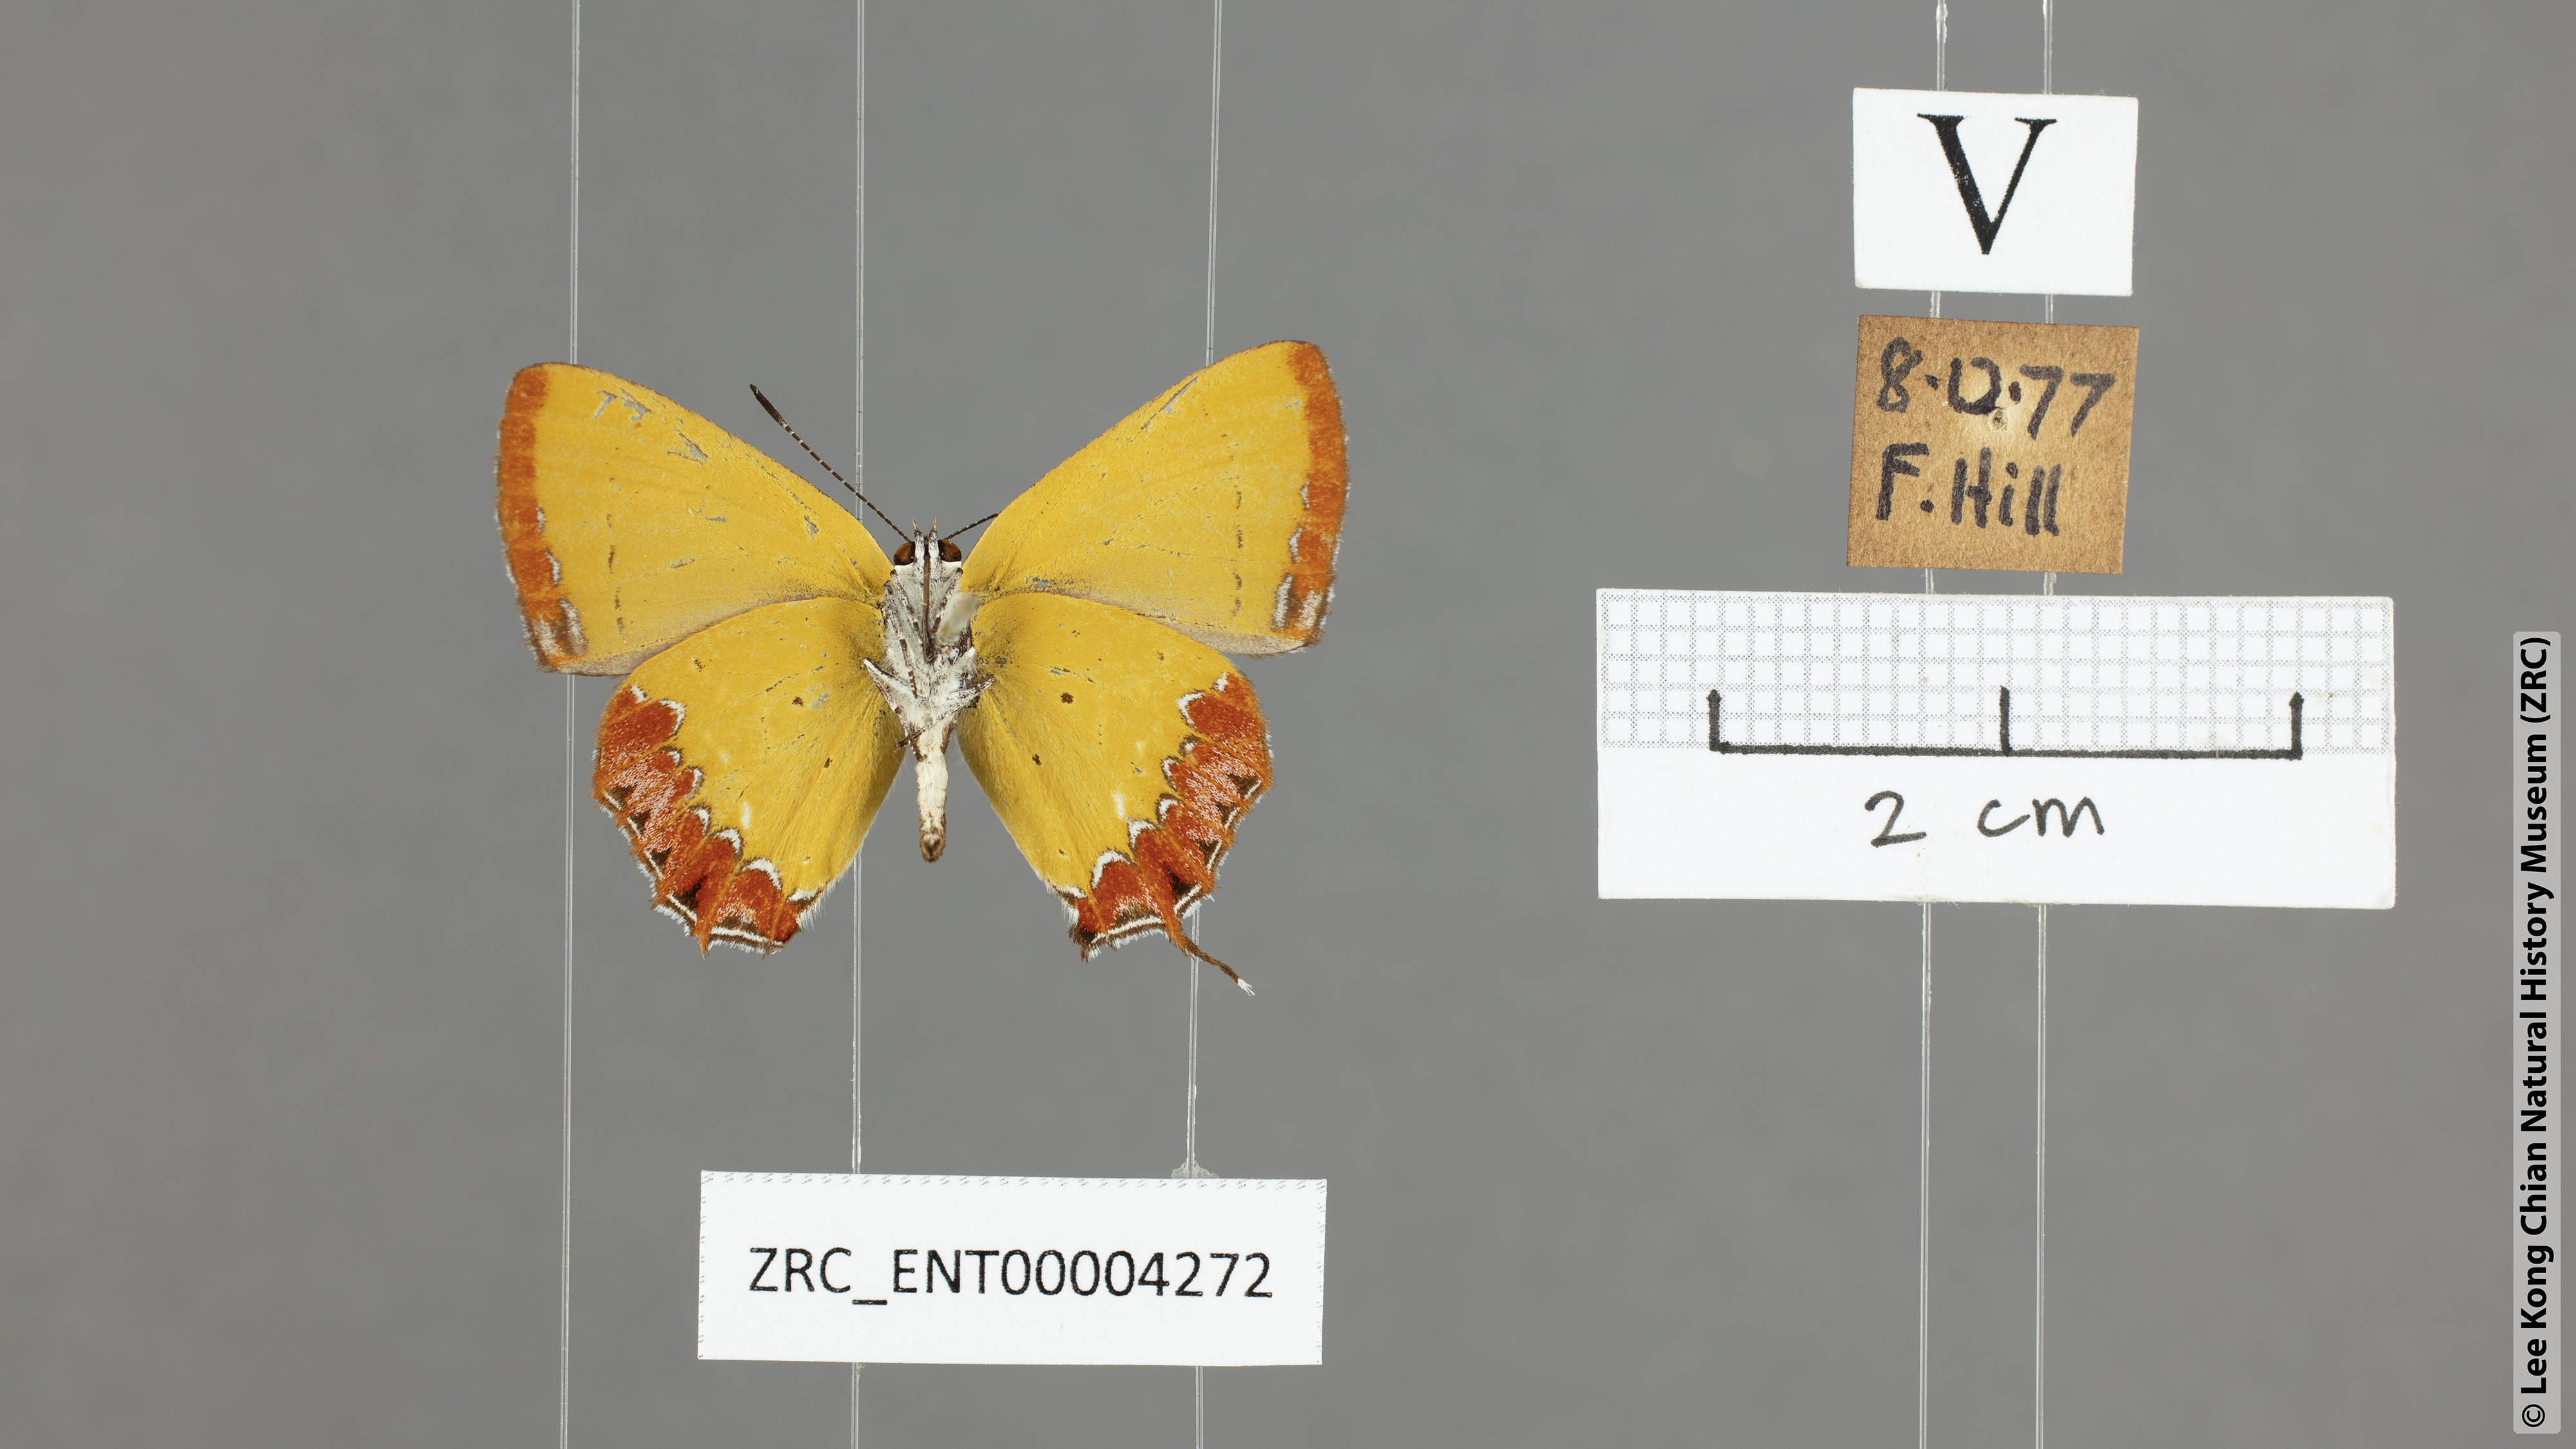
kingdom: Animalia
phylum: Arthropoda
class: Insecta
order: Lepidoptera
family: Lycaenidae
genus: Heliophorus
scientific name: Heliophorus epicles
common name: Purple sapphire
